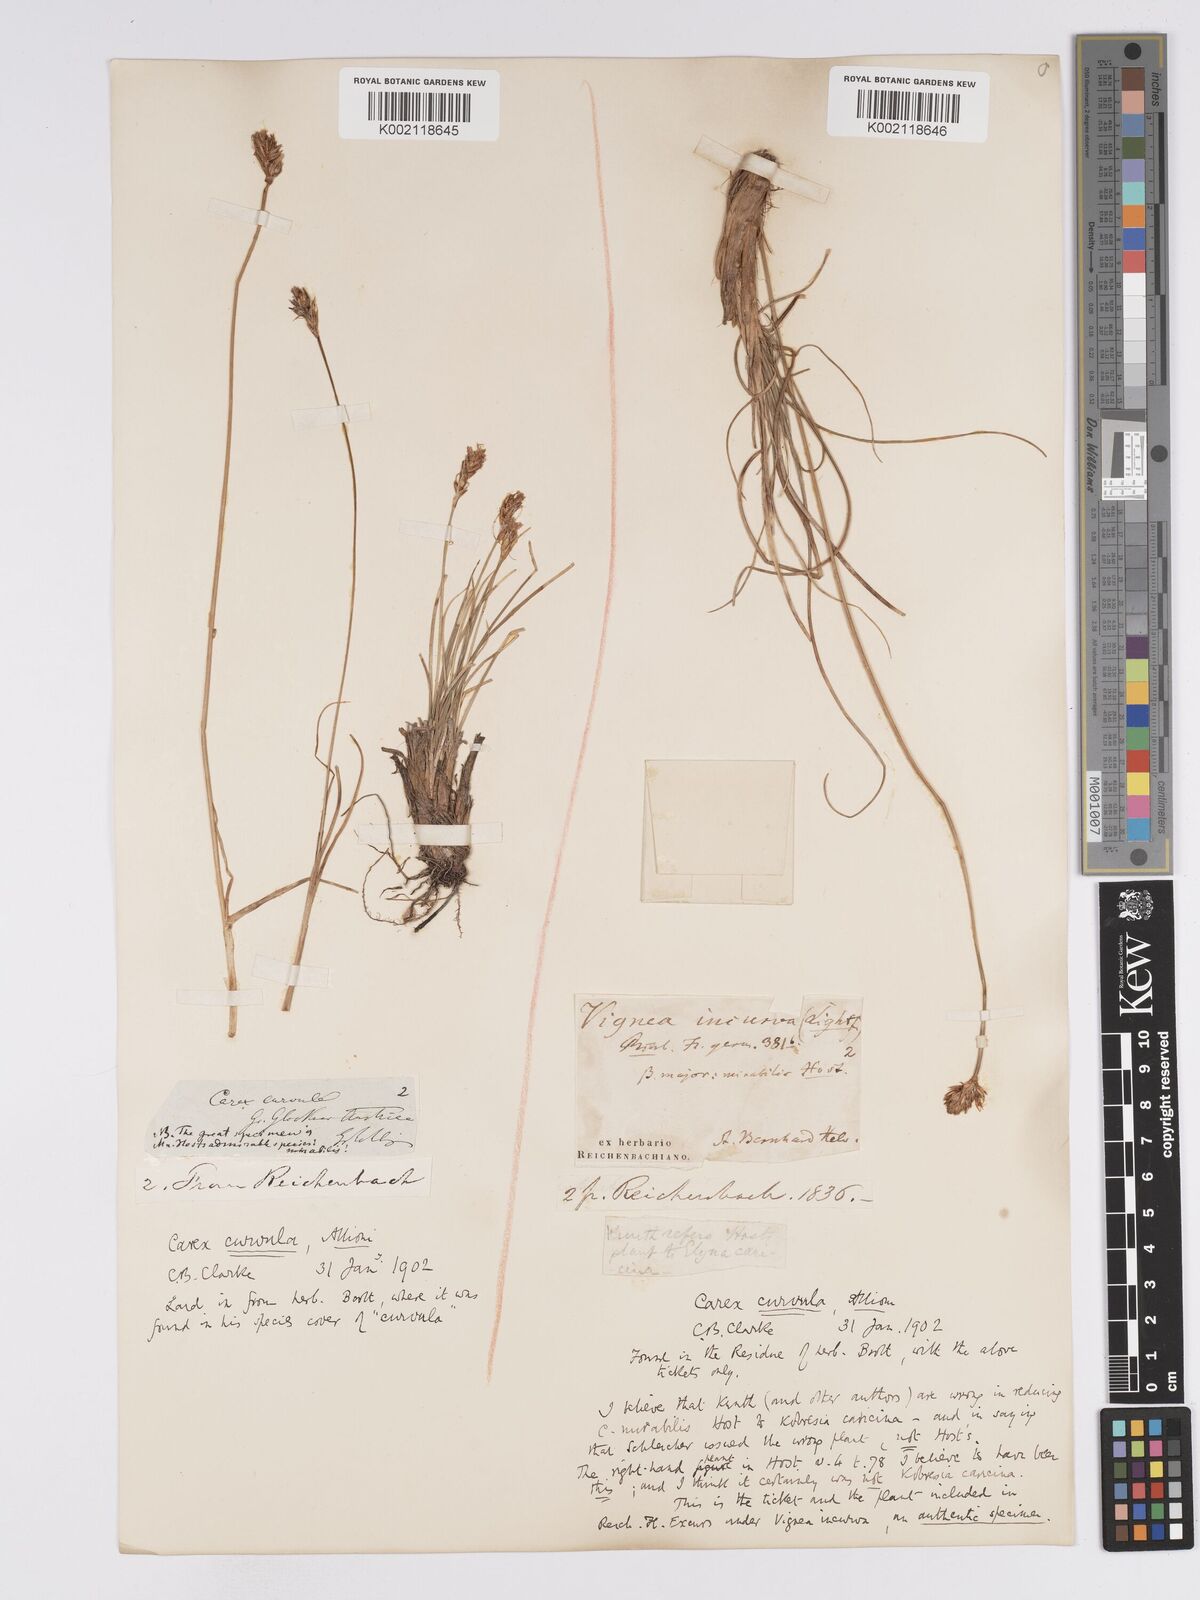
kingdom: Plantae
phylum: Tracheophyta
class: Liliopsida
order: Poales
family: Cyperaceae
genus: Carex
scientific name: Carex curvula
